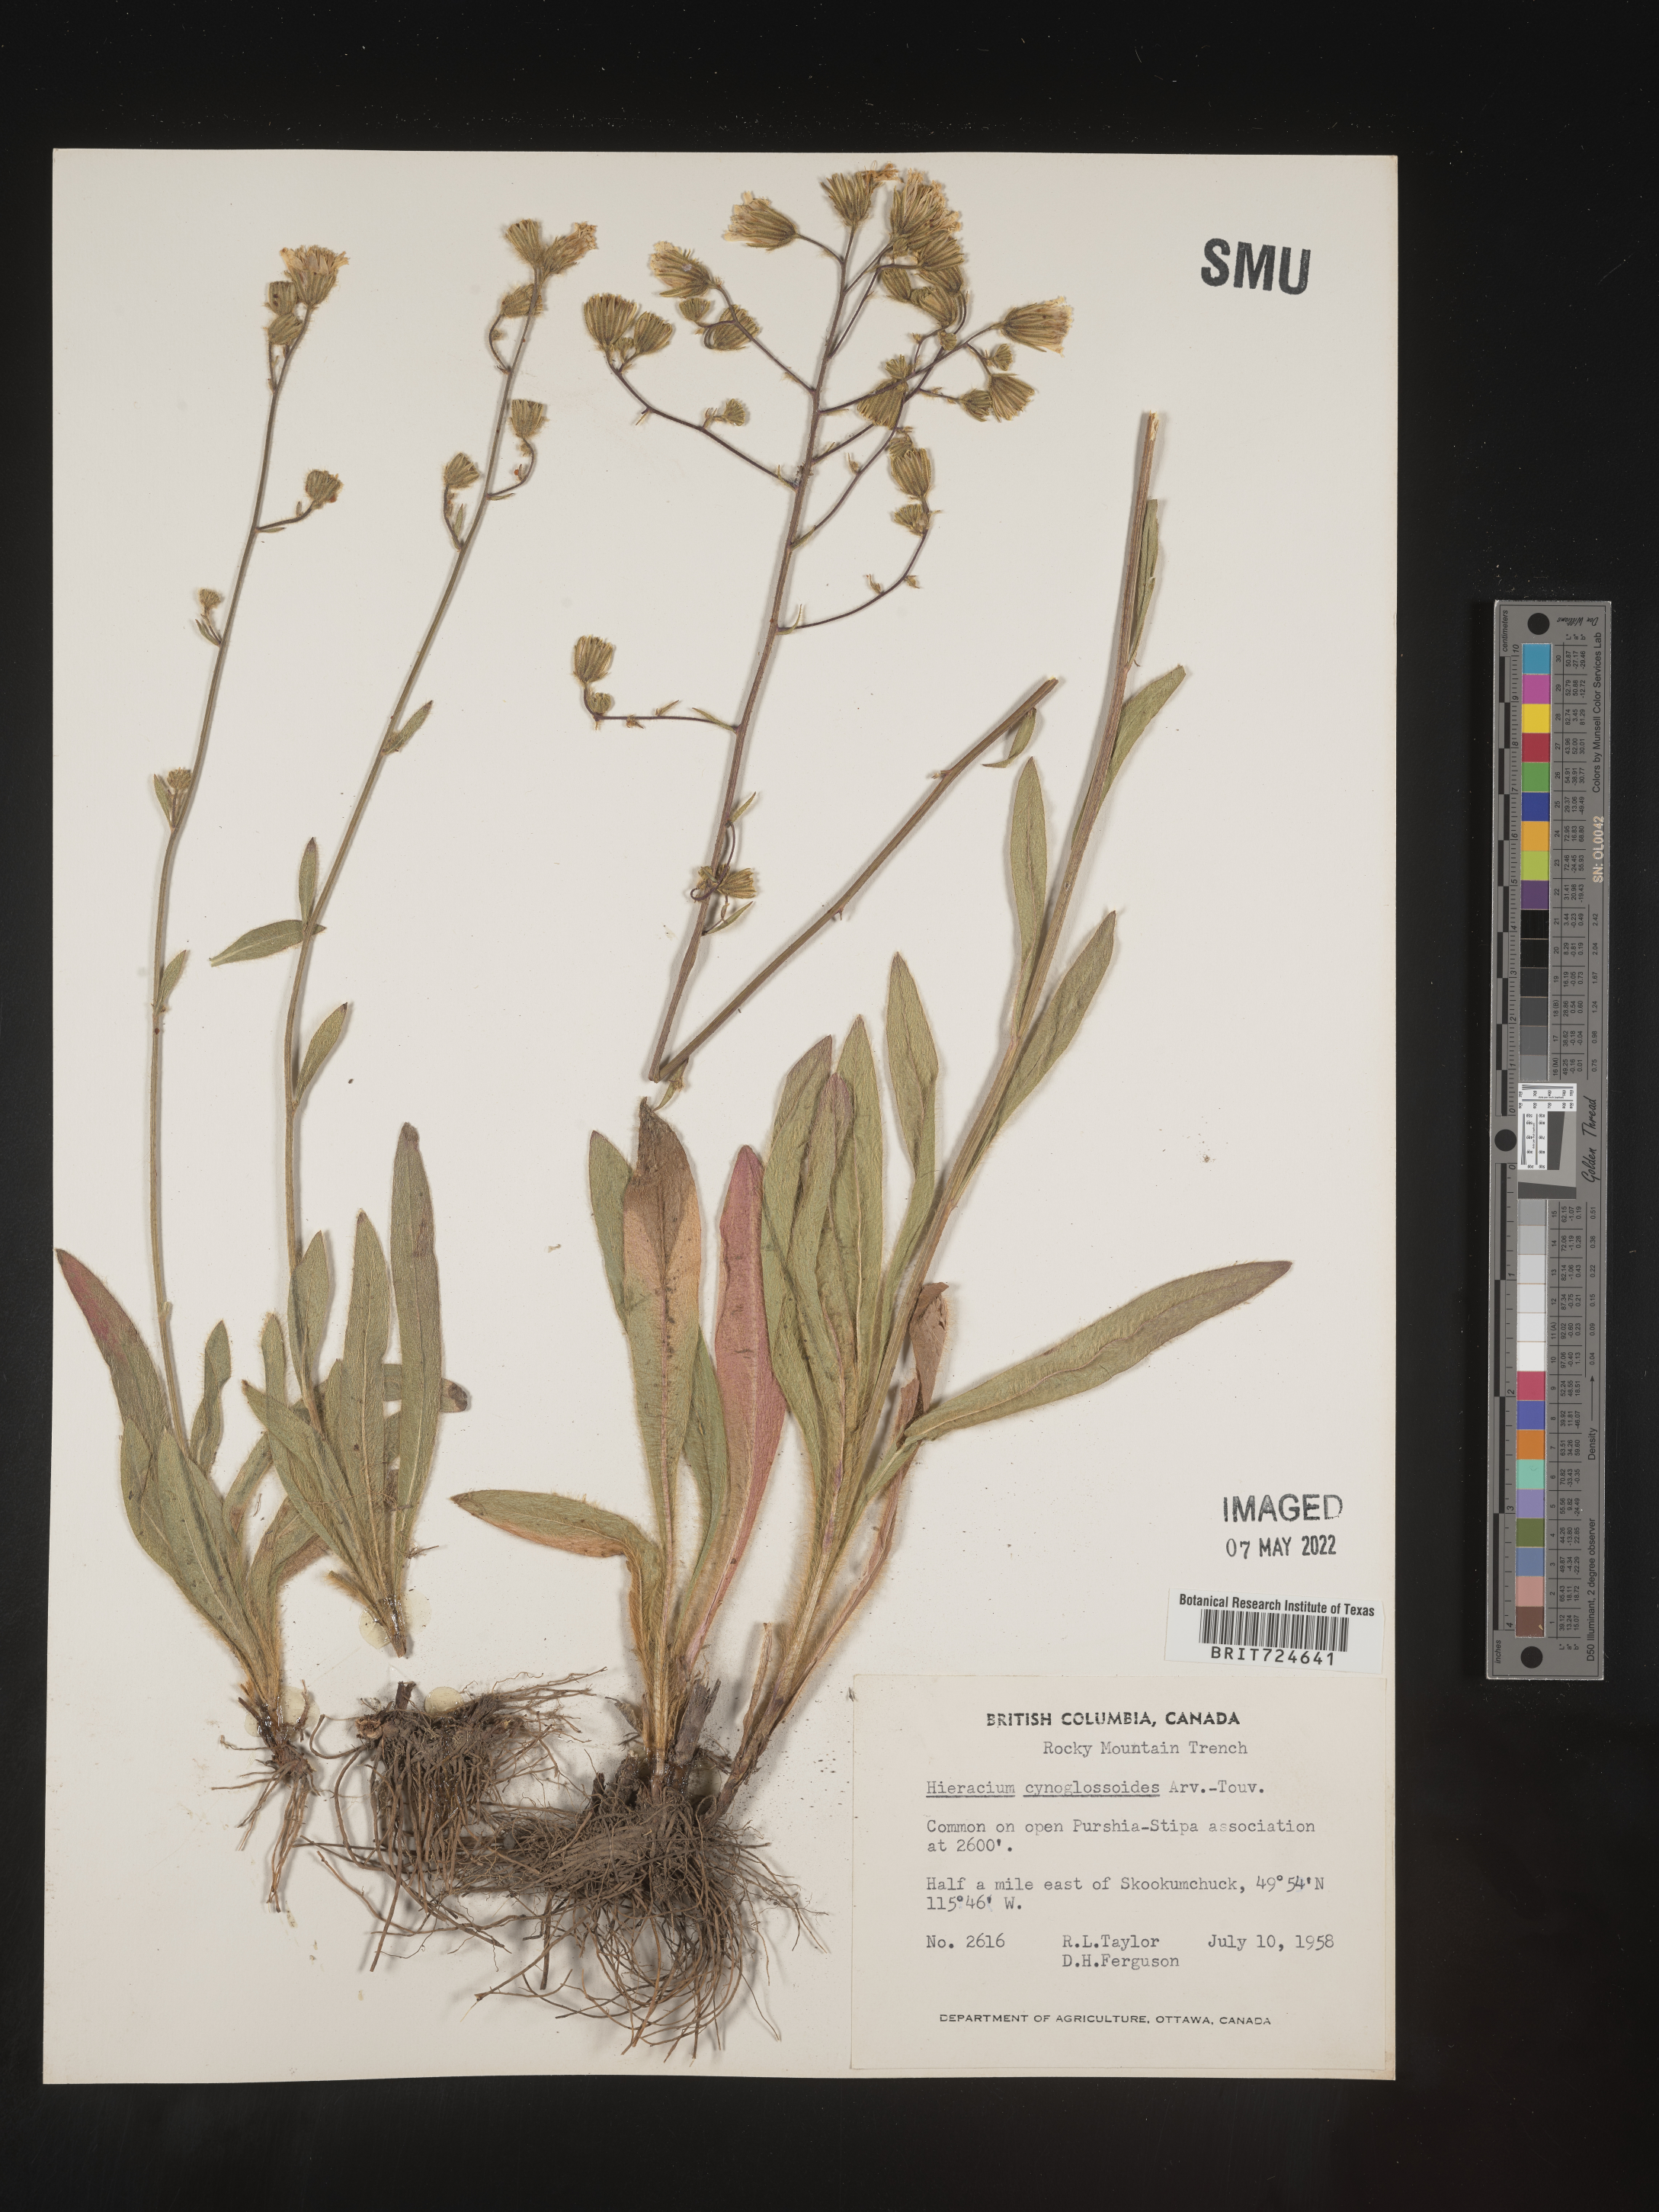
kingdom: Plantae
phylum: Tracheophyta
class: Magnoliopsida
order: Asterales
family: Asteraceae
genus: Hieracium
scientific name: Hieracium scouleri
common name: Hound's-tongue hawkweed
